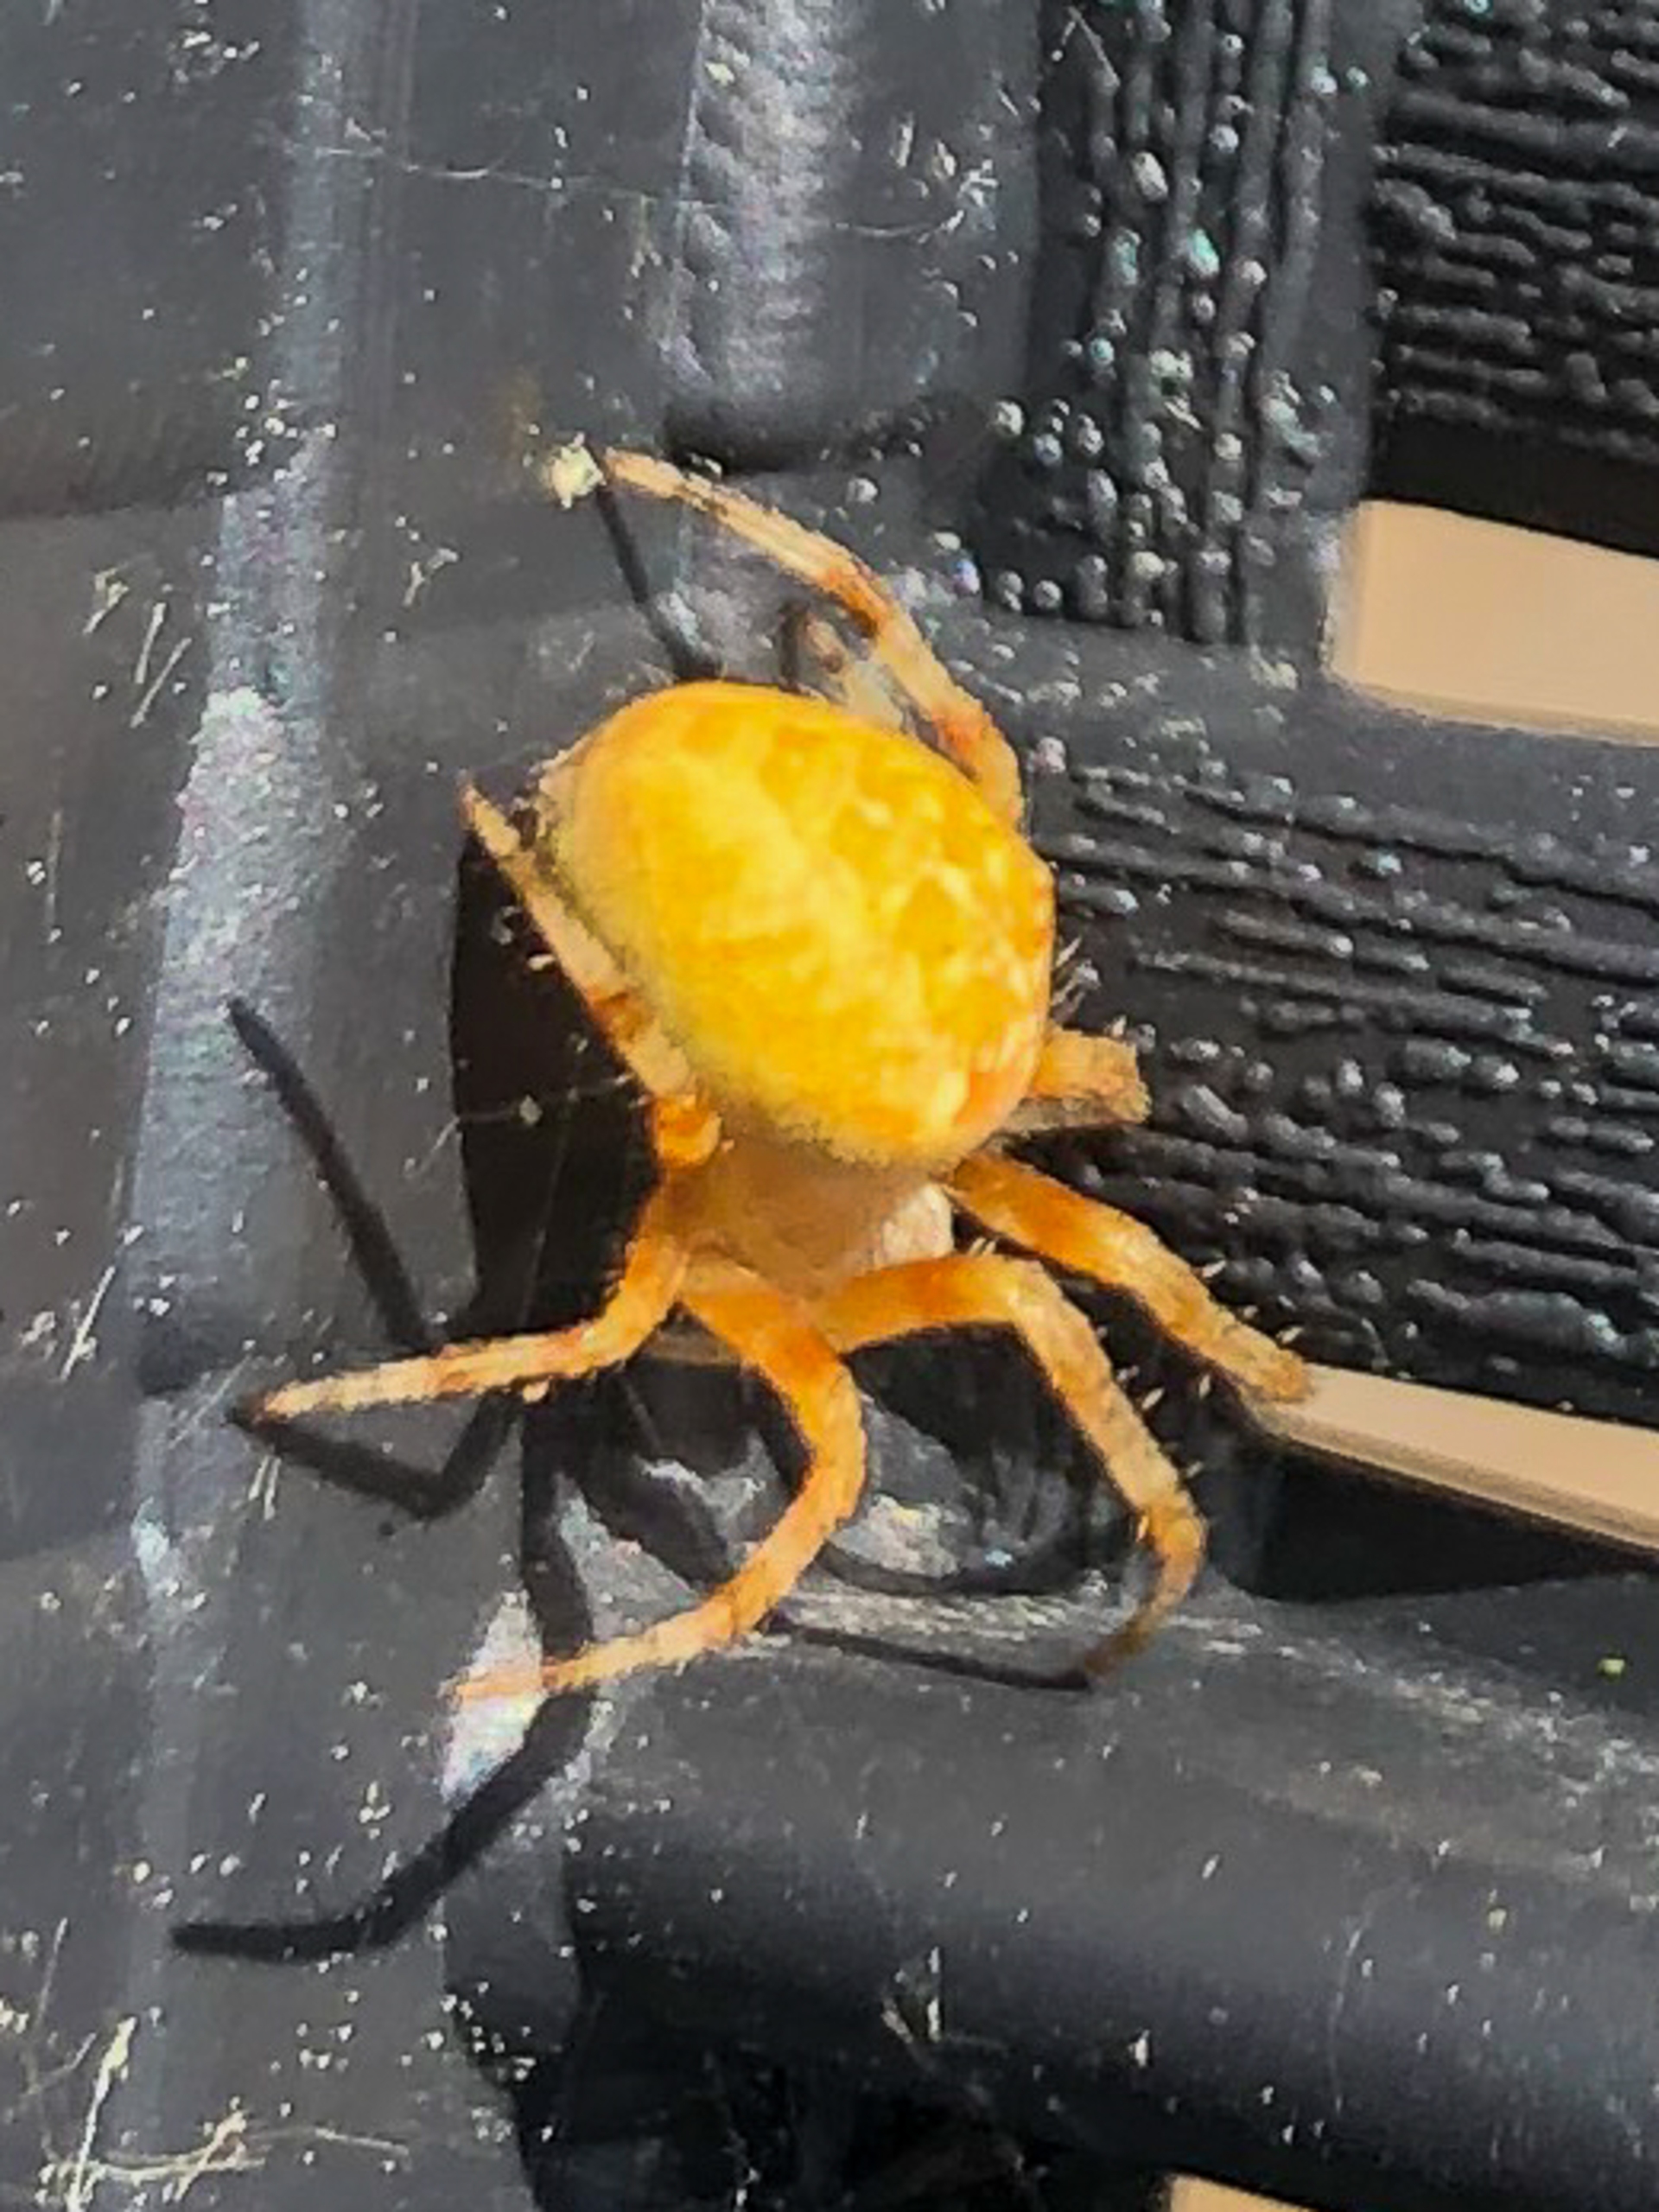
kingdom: Animalia
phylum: Arthropoda
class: Arachnida
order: Araneae
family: Araneidae
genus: Araneus
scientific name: Araneus diadematus
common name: Korsedderkop
